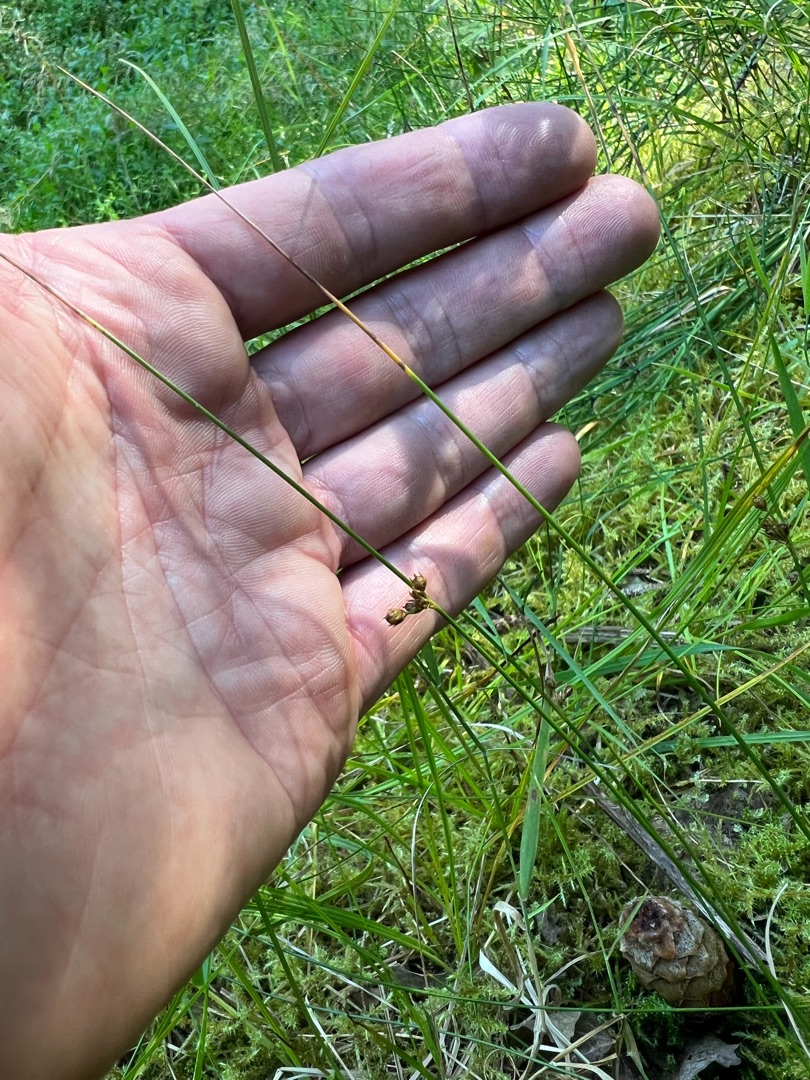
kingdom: Plantae
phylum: Tracheophyta
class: Liliopsida
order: Poales
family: Juncaceae
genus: Juncus
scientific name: Juncus filiformis
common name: Tråd-siv
